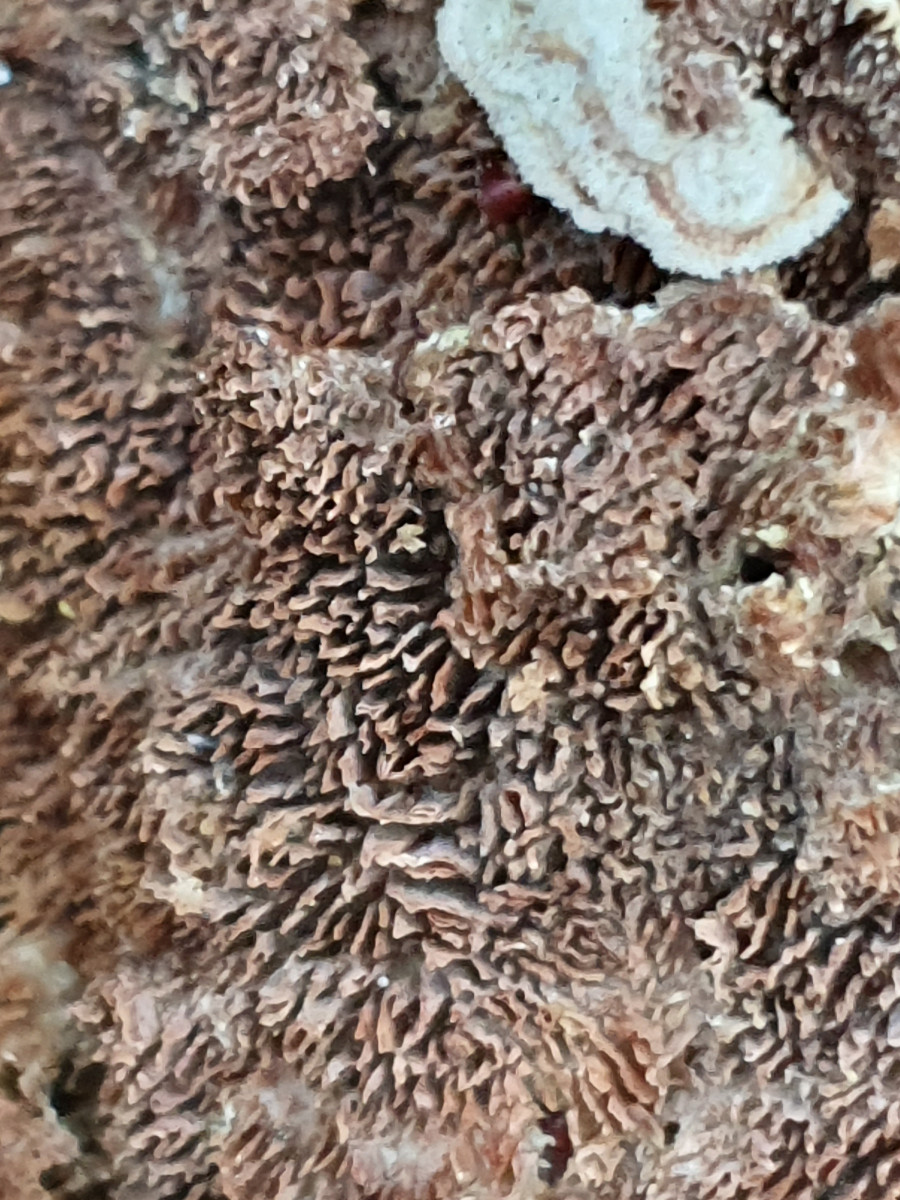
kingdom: Fungi
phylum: Basidiomycota
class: Agaricomycetes
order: Hymenochaetales
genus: Trichaptum
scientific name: Trichaptum fuscoviolaceum
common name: tandet violporesvamp
